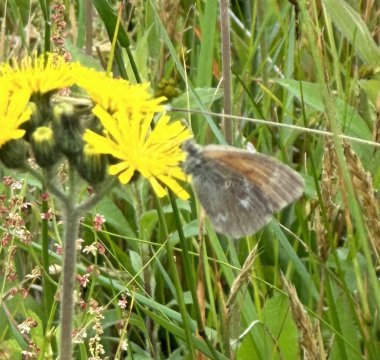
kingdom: Animalia
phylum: Arthropoda
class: Insecta
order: Lepidoptera
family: Nymphalidae
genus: Coenonympha
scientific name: Coenonympha tullia
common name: Large Heath
